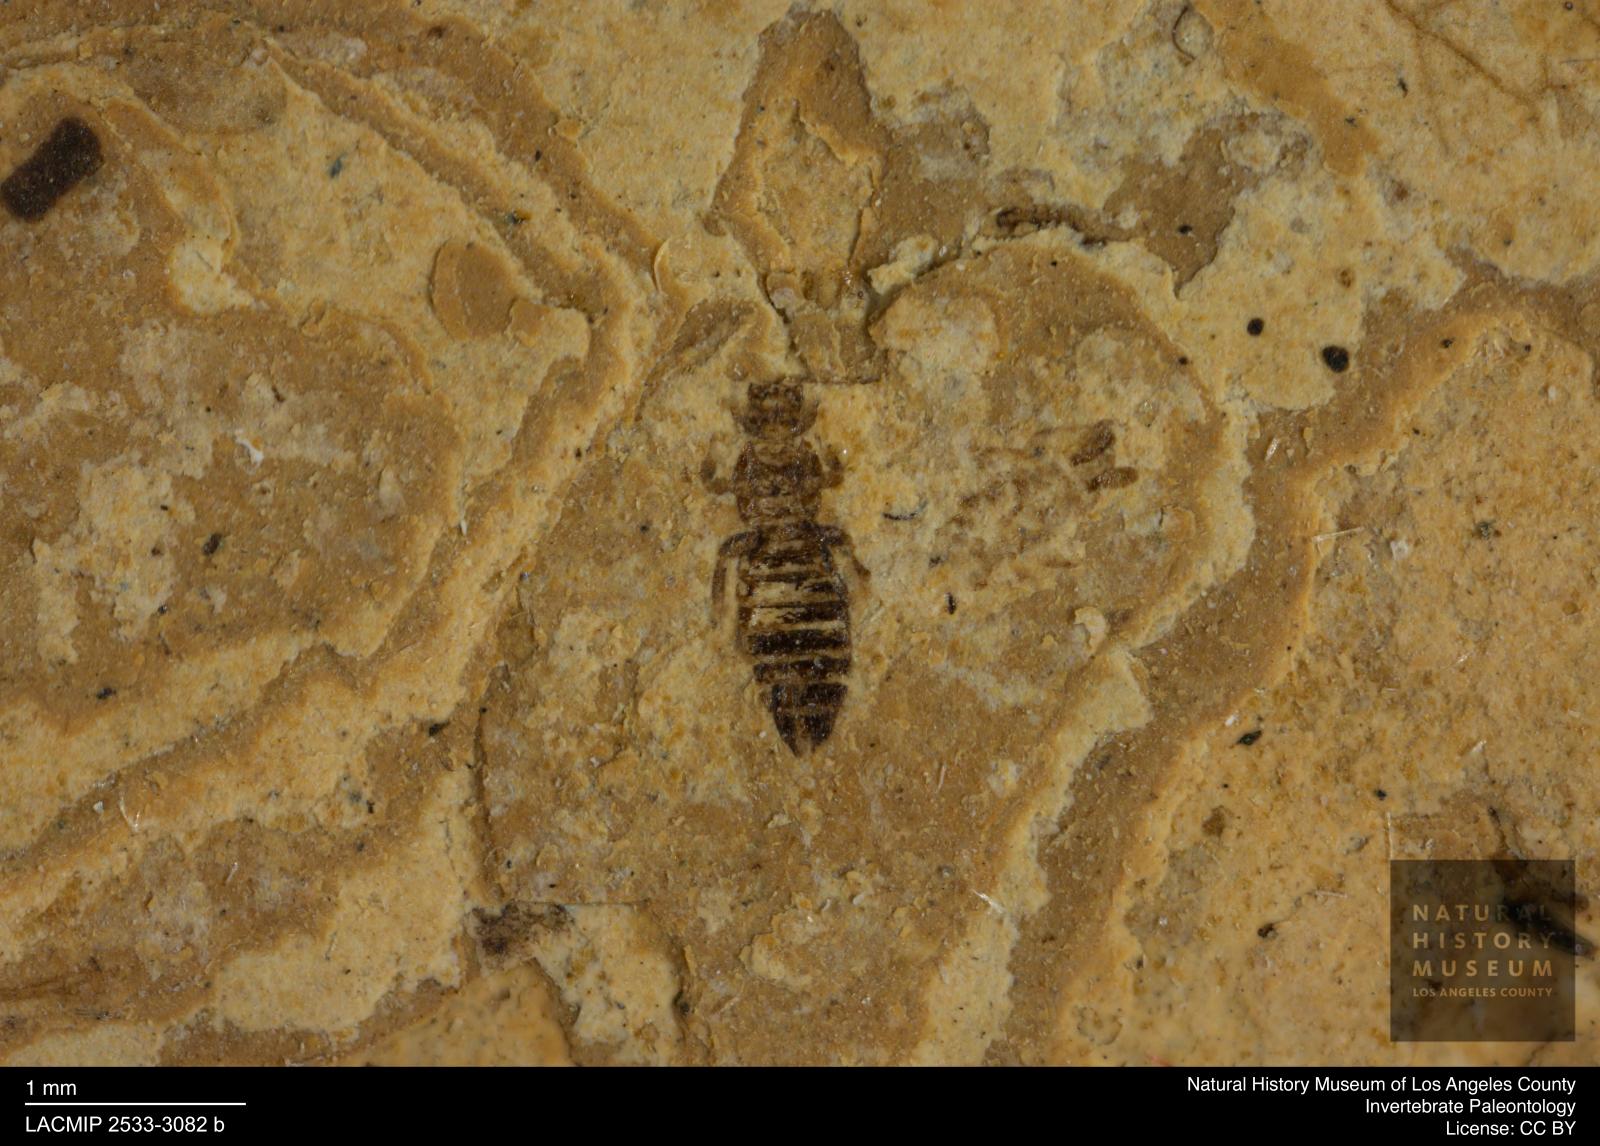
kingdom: Animalia
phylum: Arthropoda
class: Insecta
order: Thysanoptera
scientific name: Thysanoptera
